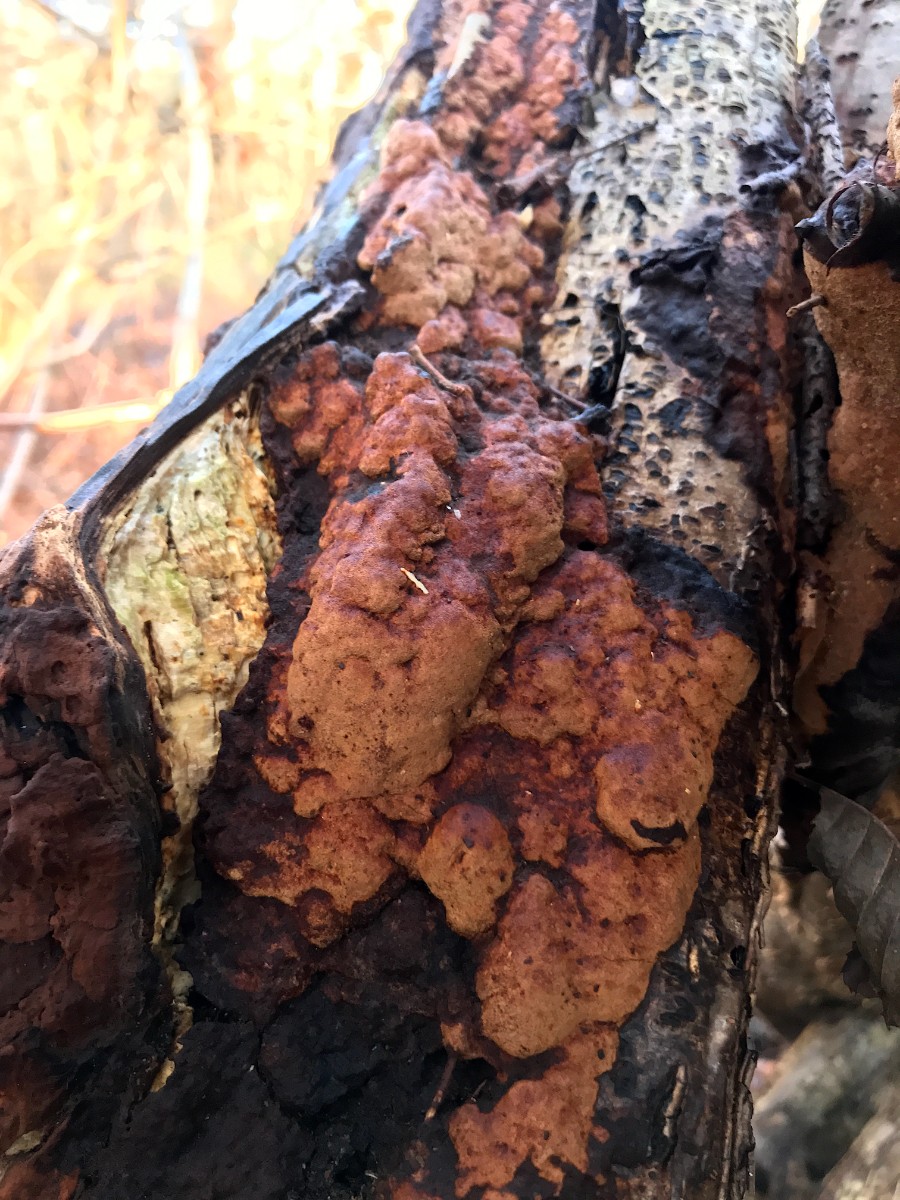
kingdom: Fungi
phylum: Basidiomycota
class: Agaricomycetes
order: Hymenochaetales
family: Hymenochaetaceae
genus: Fuscoporia
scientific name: Fuscoporia ferrea
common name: skorpe-ildporesvamp
